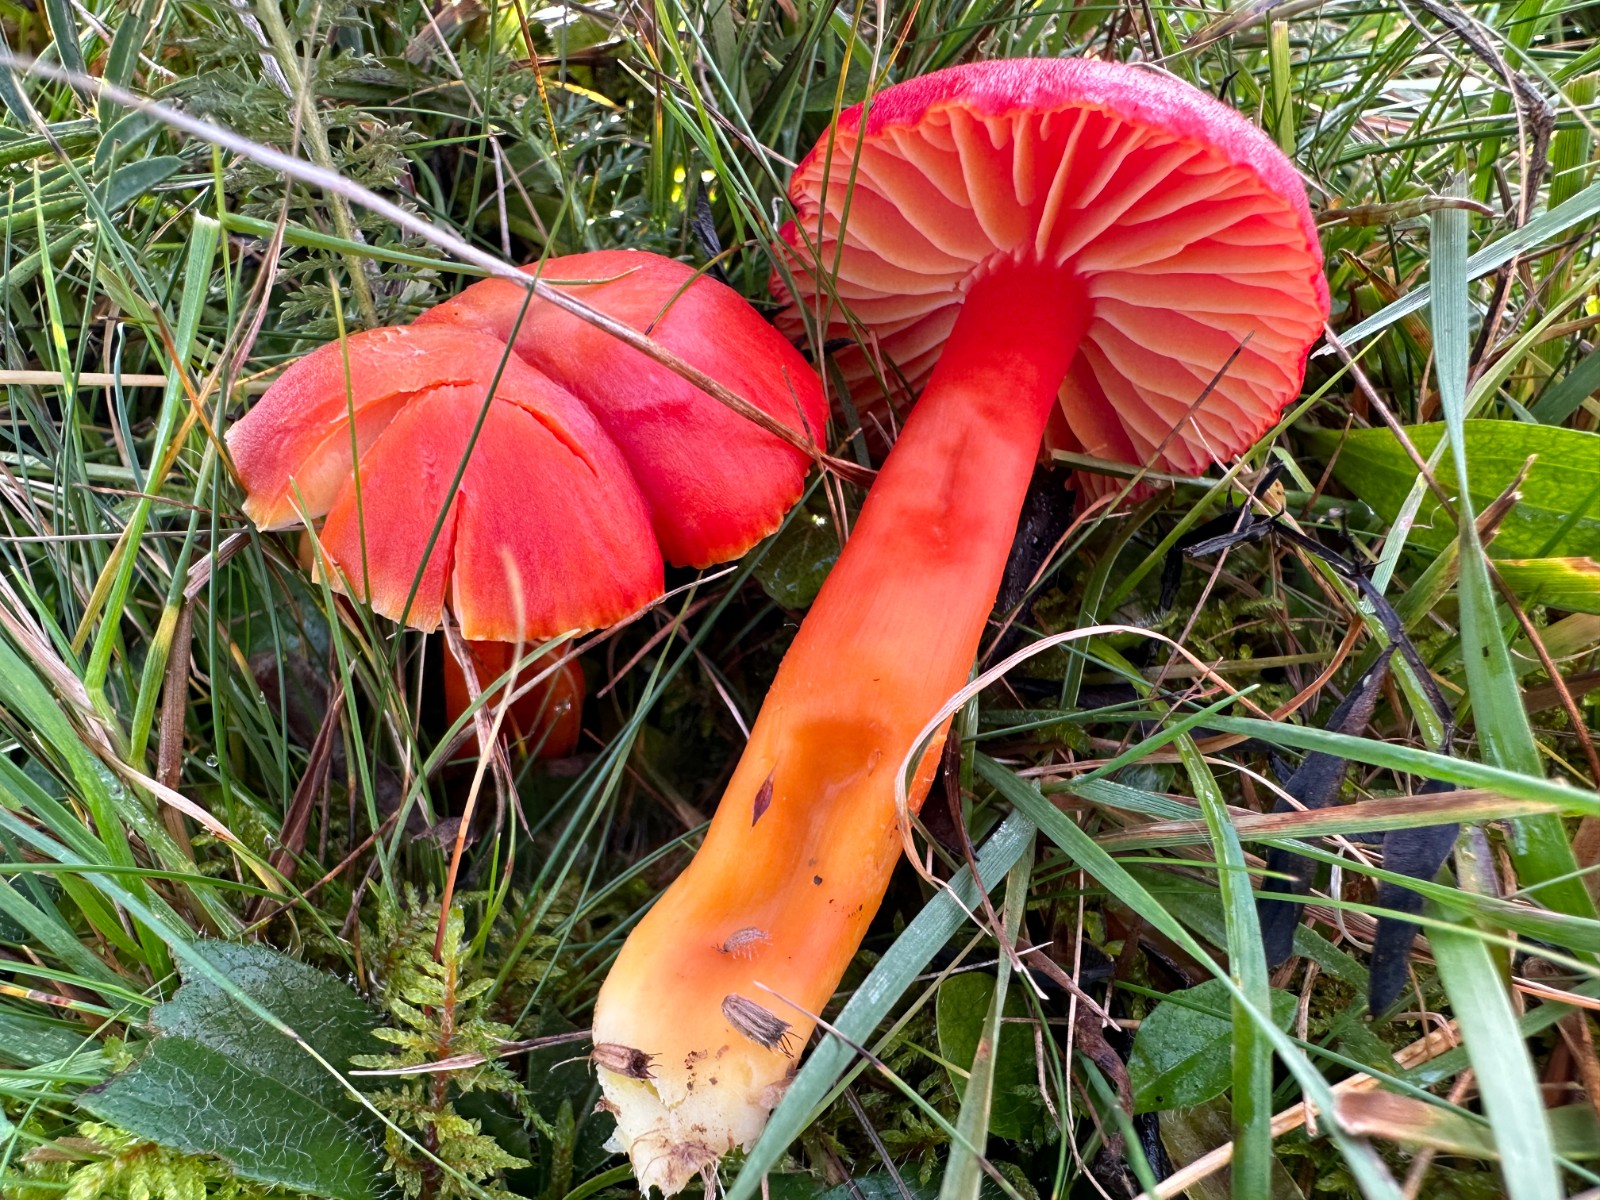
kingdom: Fungi
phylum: Basidiomycota
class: Agaricomycetes
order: Agaricales
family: Hygrophoraceae
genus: Hygrocybe
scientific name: Hygrocybe coccinea
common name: cinnober-vokshat
